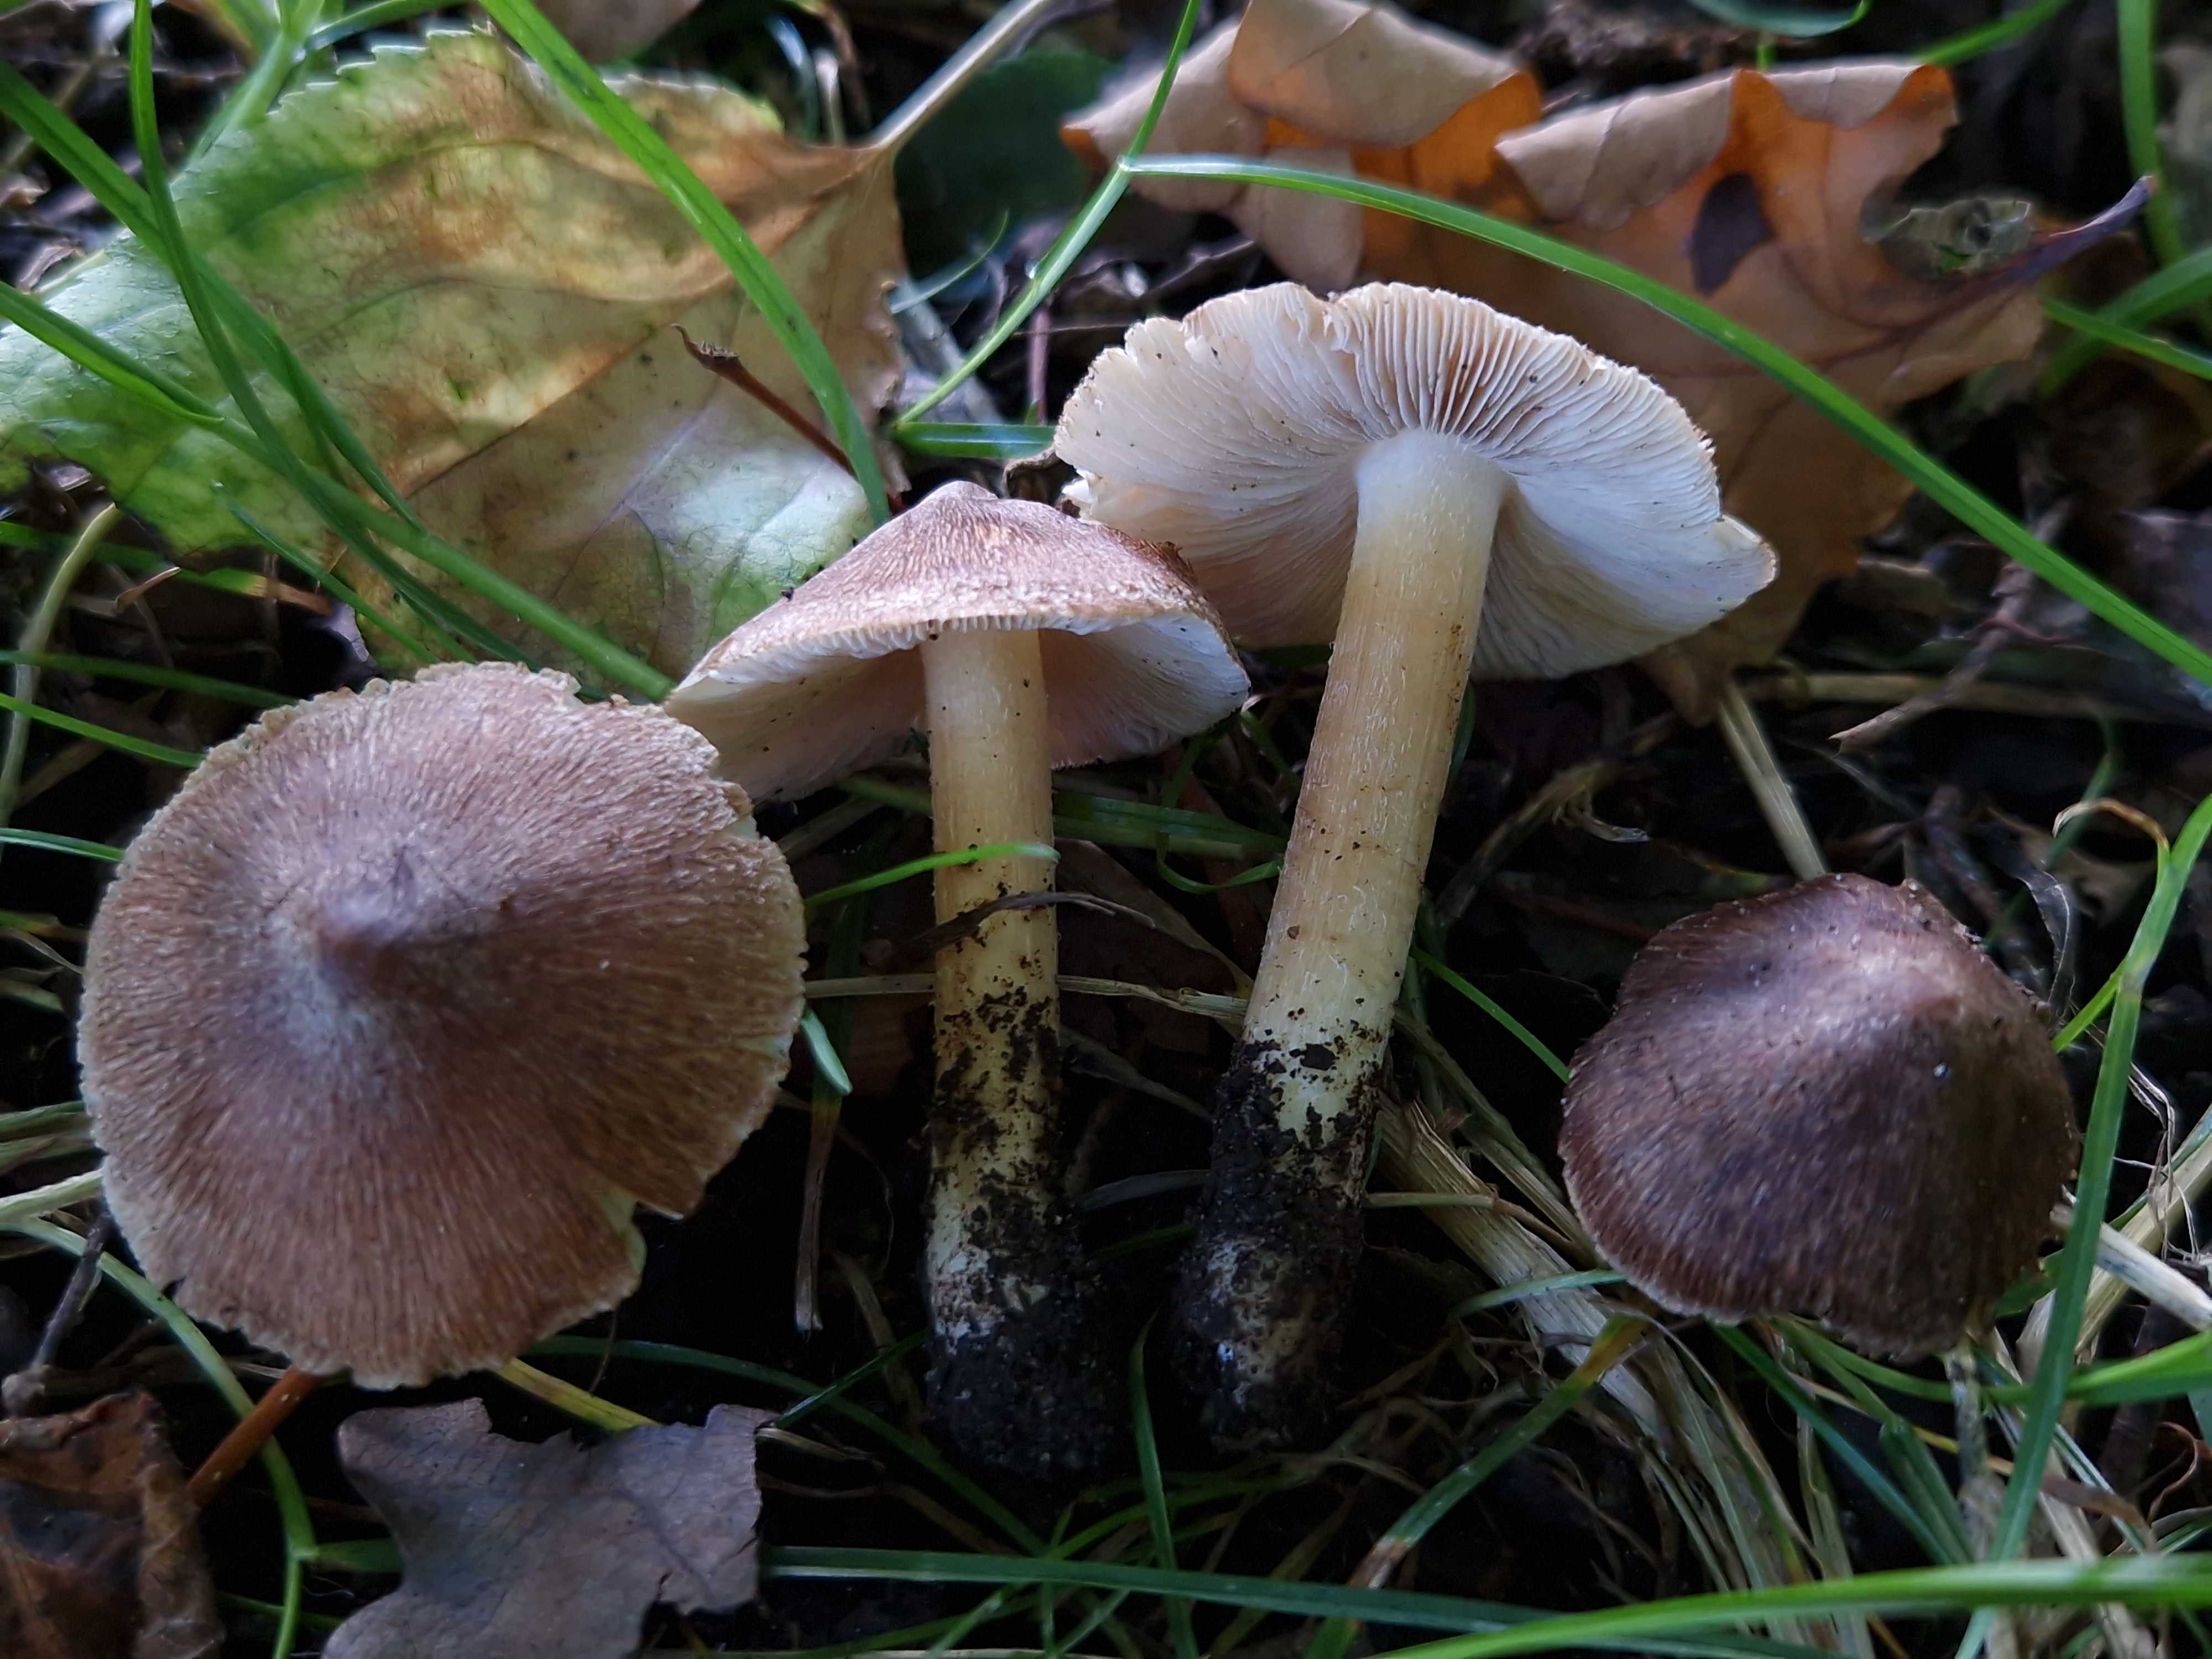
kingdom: Fungi
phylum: Basidiomycota
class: Agaricomycetes
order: Agaricales
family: Inocybaceae
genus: Inosperma
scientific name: Inosperma
